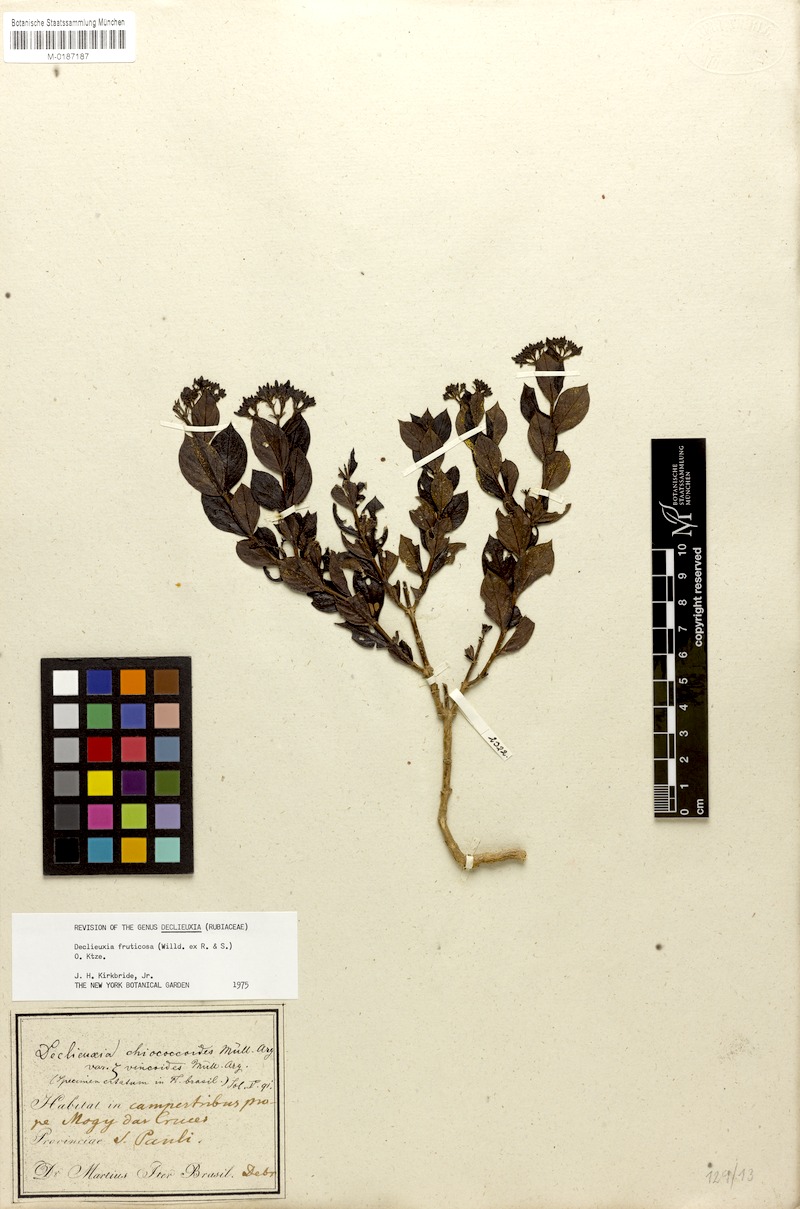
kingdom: Plantae
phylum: Tracheophyta
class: Magnoliopsida
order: Gentianales
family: Rubiaceae
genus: Declieuxia
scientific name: Declieuxia fruticosa
